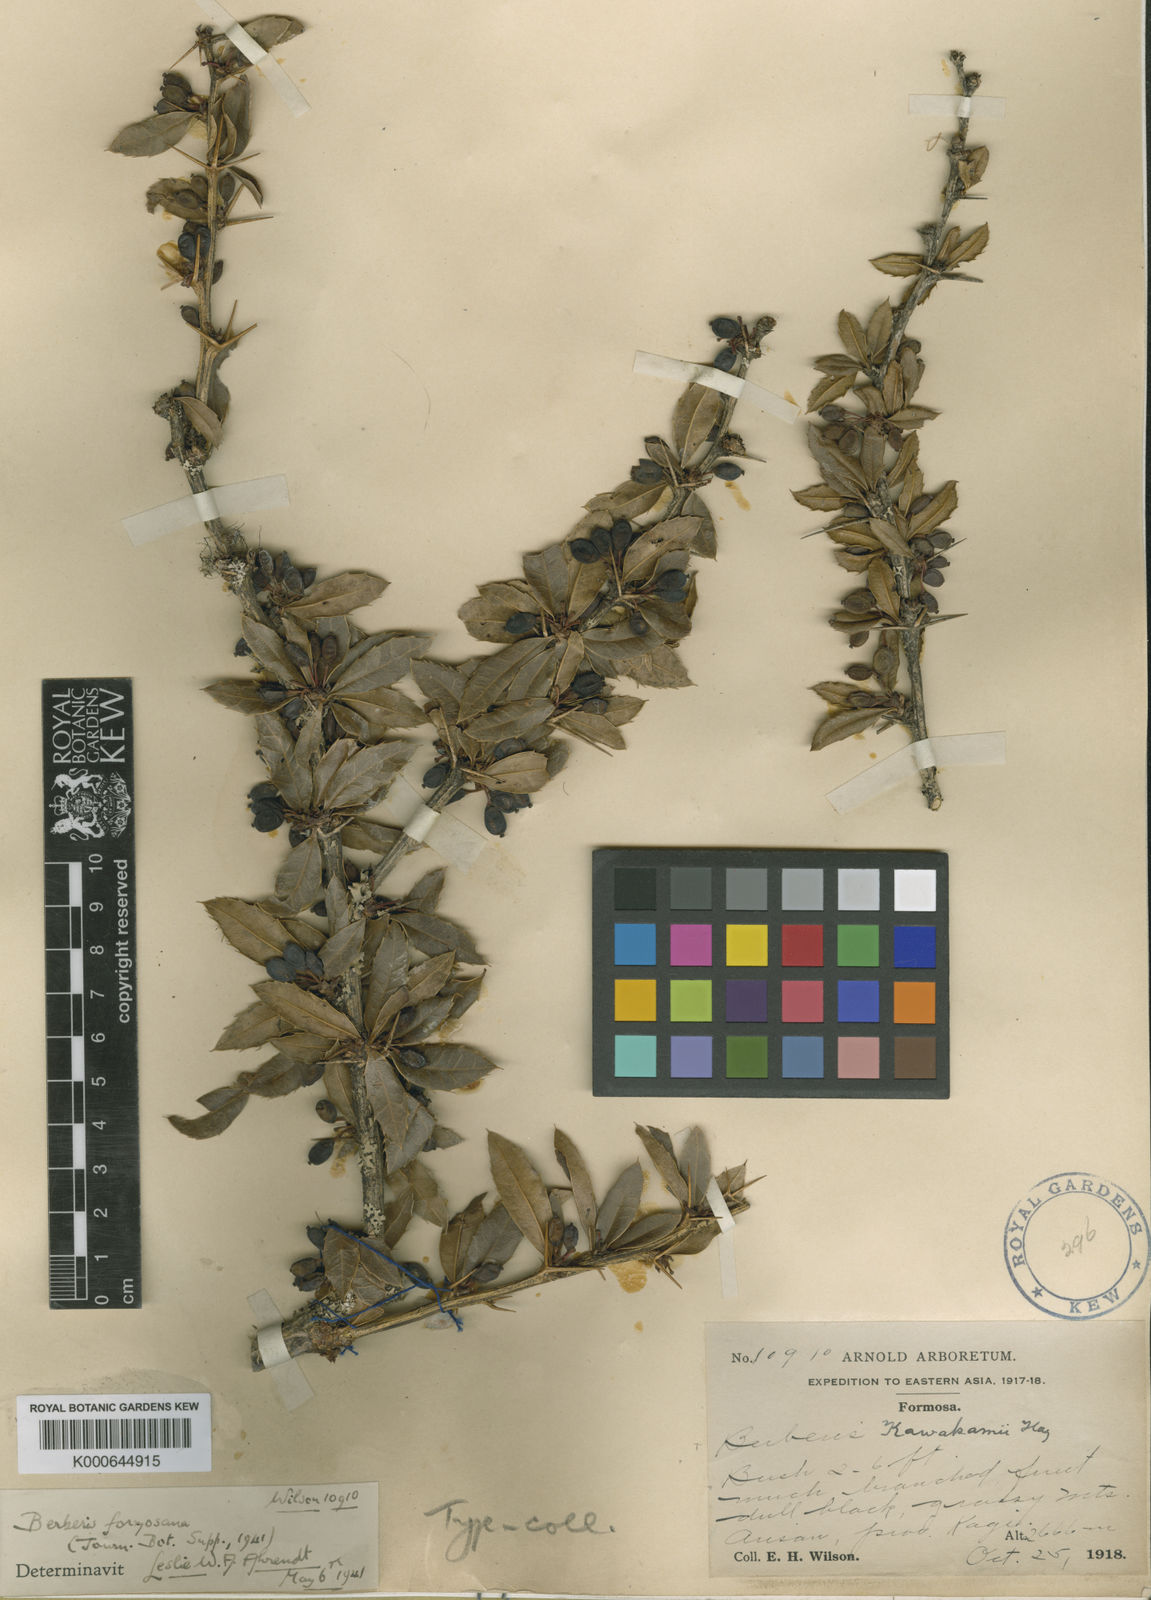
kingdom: Plantae
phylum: Tracheophyta
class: Magnoliopsida
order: Ranunculales
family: Berberidaceae
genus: Berberis
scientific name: Berberis kawakamii
